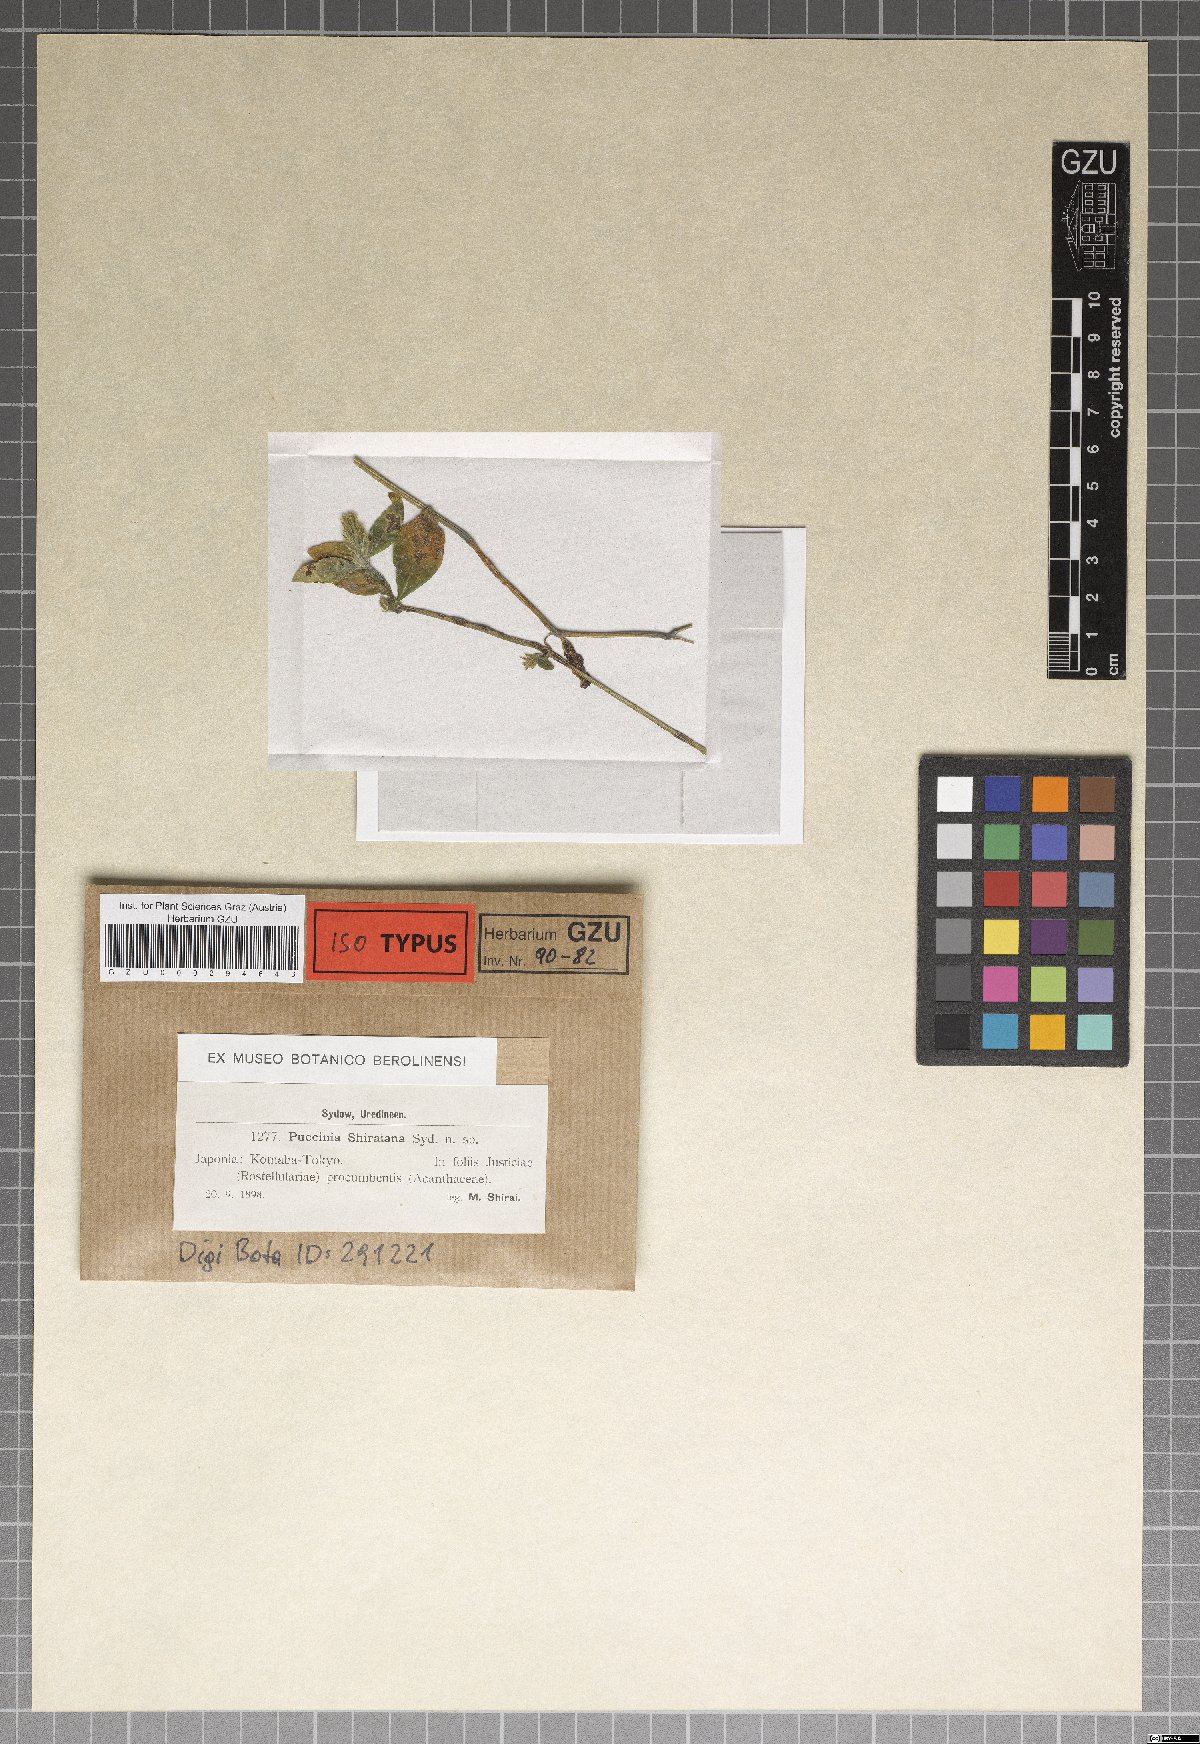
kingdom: Fungi
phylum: Basidiomycota
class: Pucciniomycetes
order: Pucciniales
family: Pucciniaceae
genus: Puccinia
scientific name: Puccinia shiraiana
